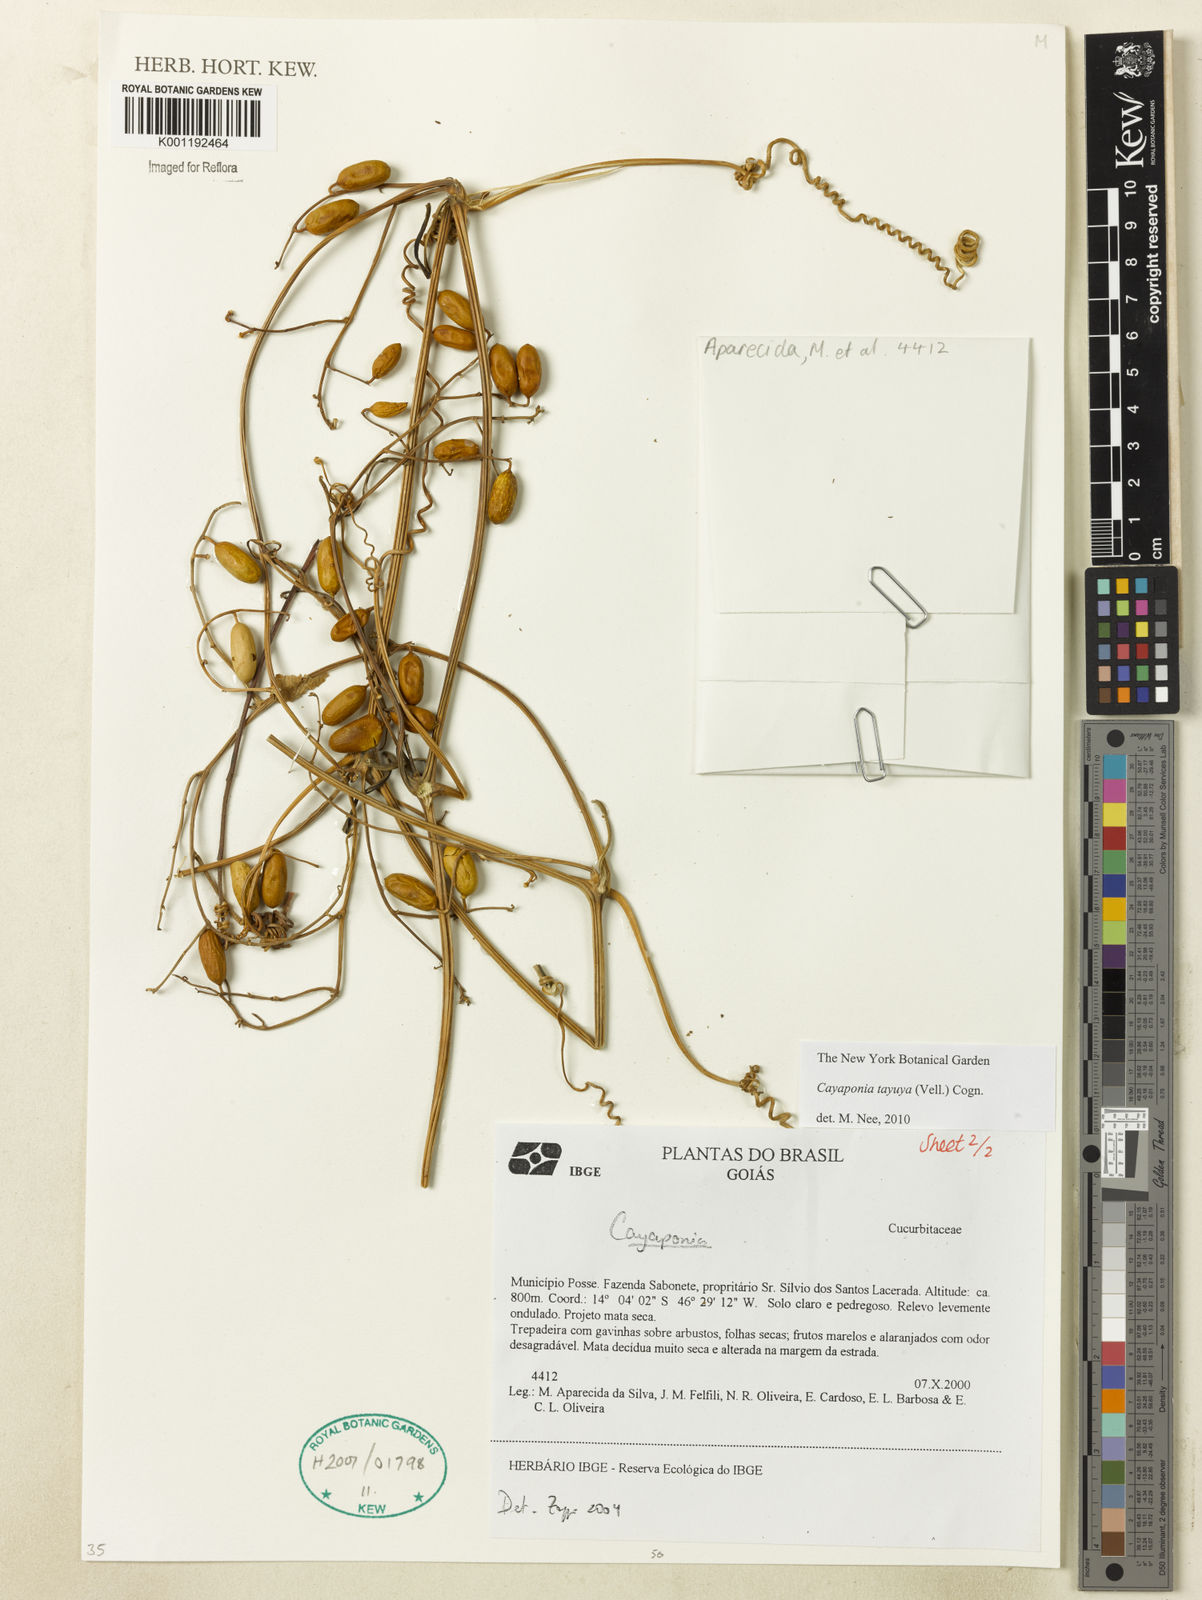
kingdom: Plantae
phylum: Tracheophyta
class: Magnoliopsida
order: Cucurbitales
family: Cucurbitaceae
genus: Cayaponia
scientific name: Cayaponia tayuya
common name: Tayuya
